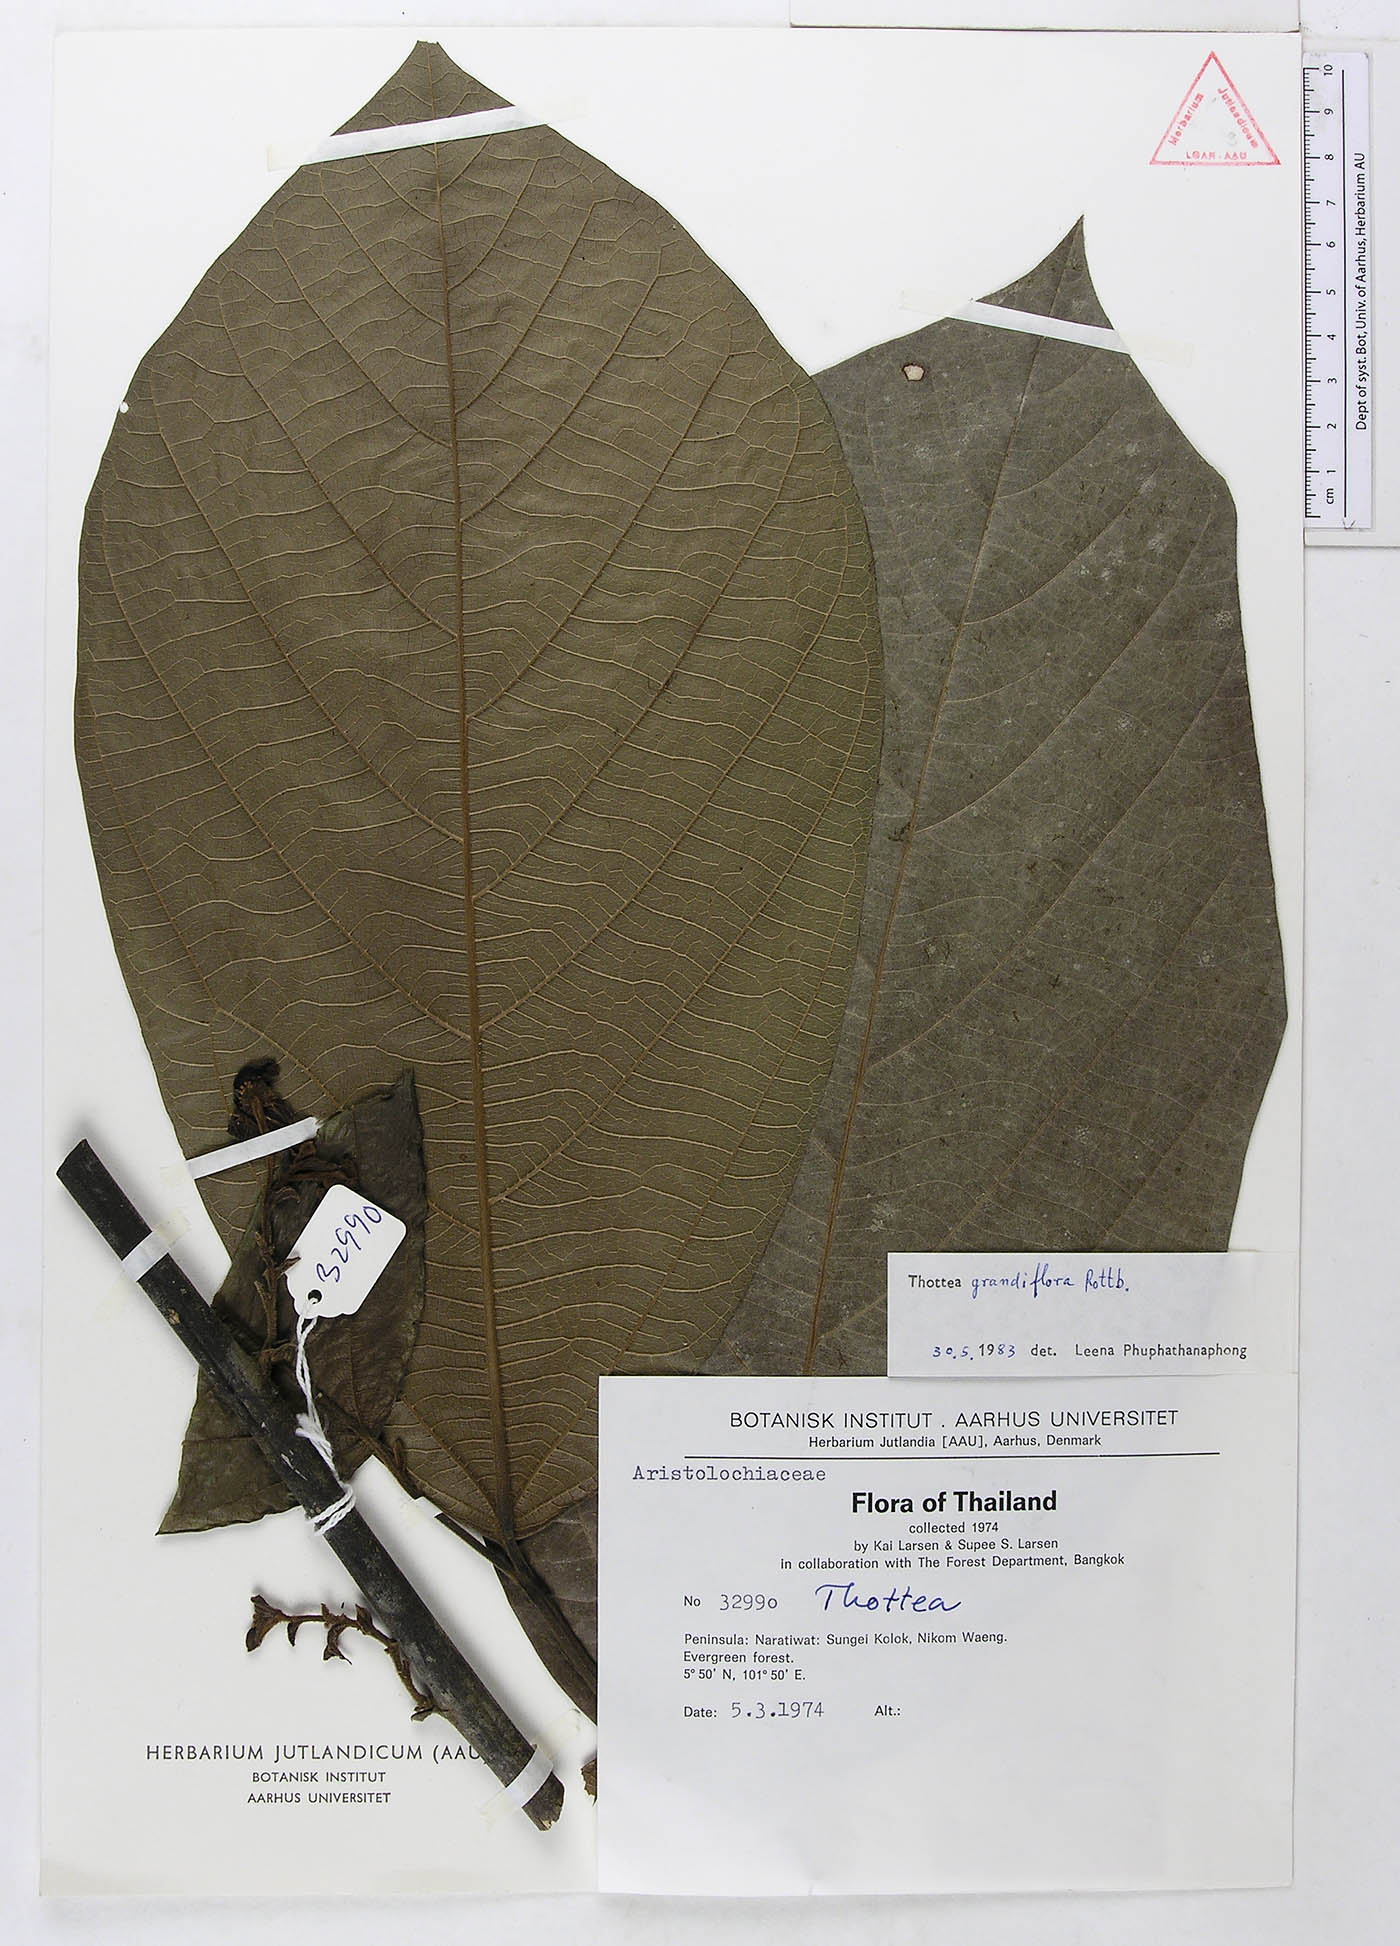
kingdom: Plantae
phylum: Tracheophyta
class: Magnoliopsida
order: Piperales
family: Aristolochiaceae
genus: Thottea
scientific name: Thottea grandiflora
